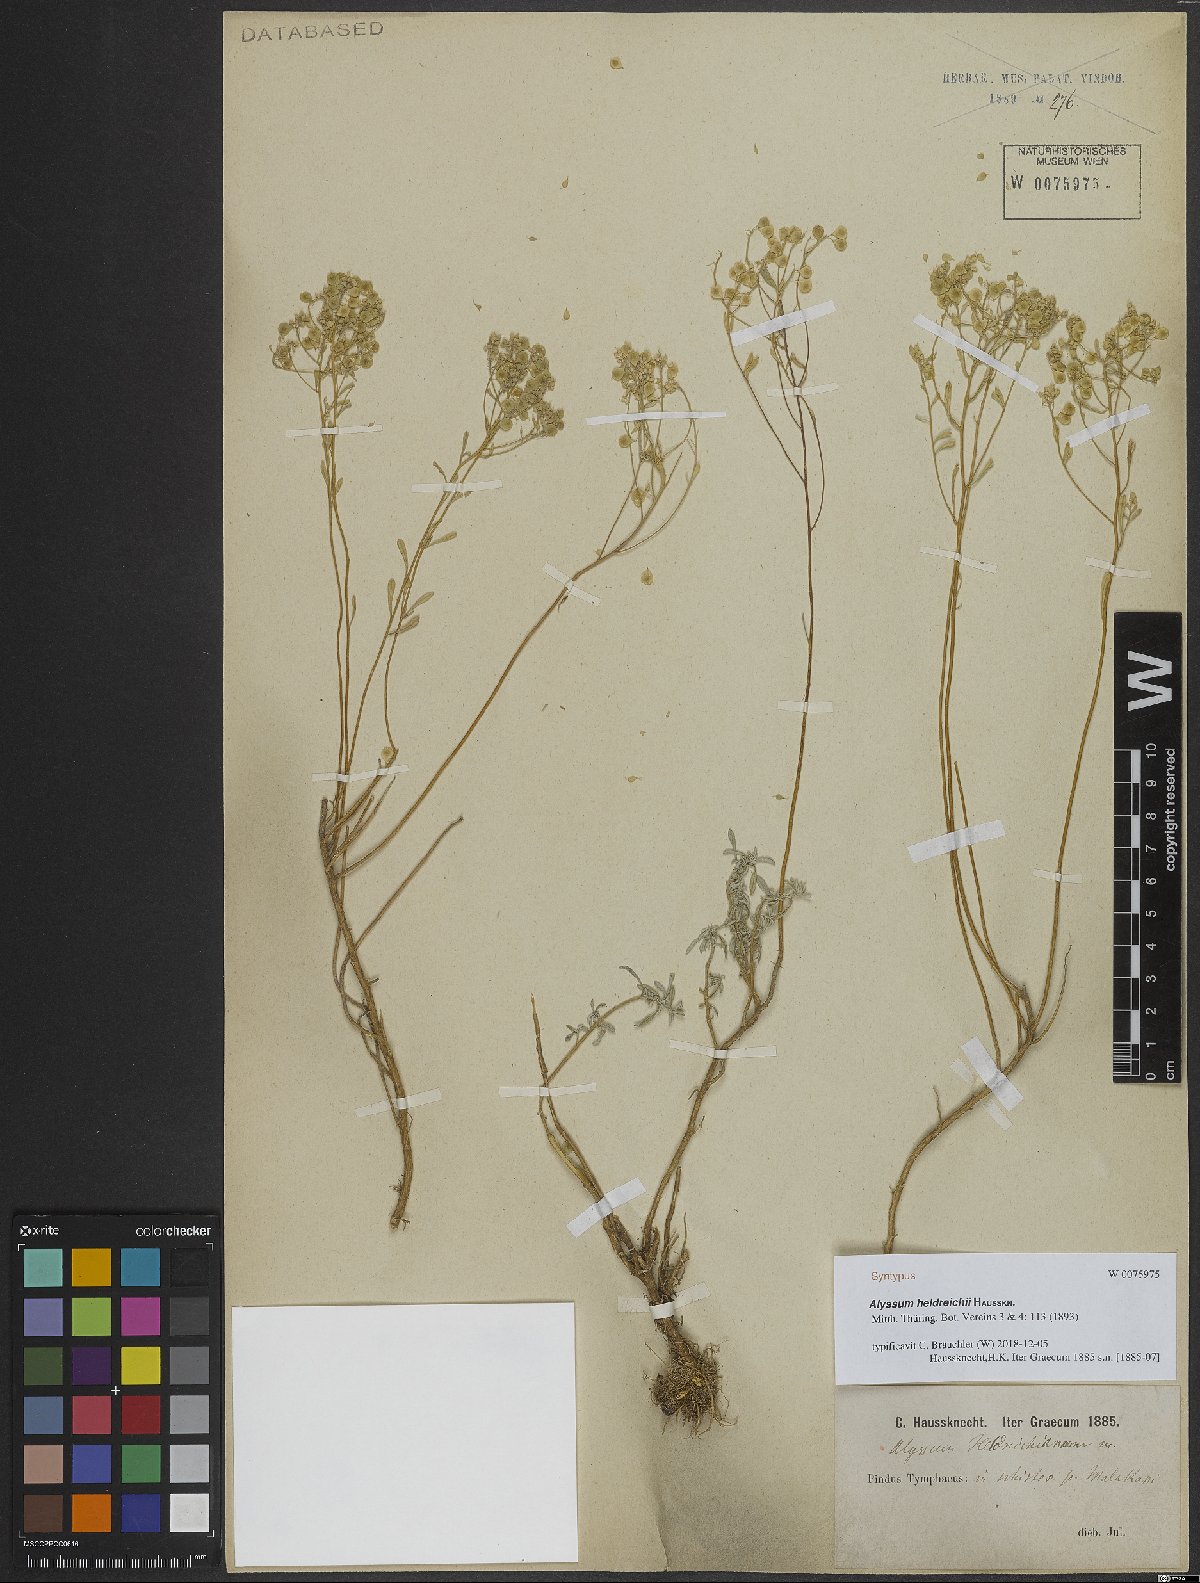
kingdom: Plantae
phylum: Tracheophyta
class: Magnoliopsida
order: Brassicales
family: Brassicaceae
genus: Odontarrhena
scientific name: Odontarrhena heldreichii
